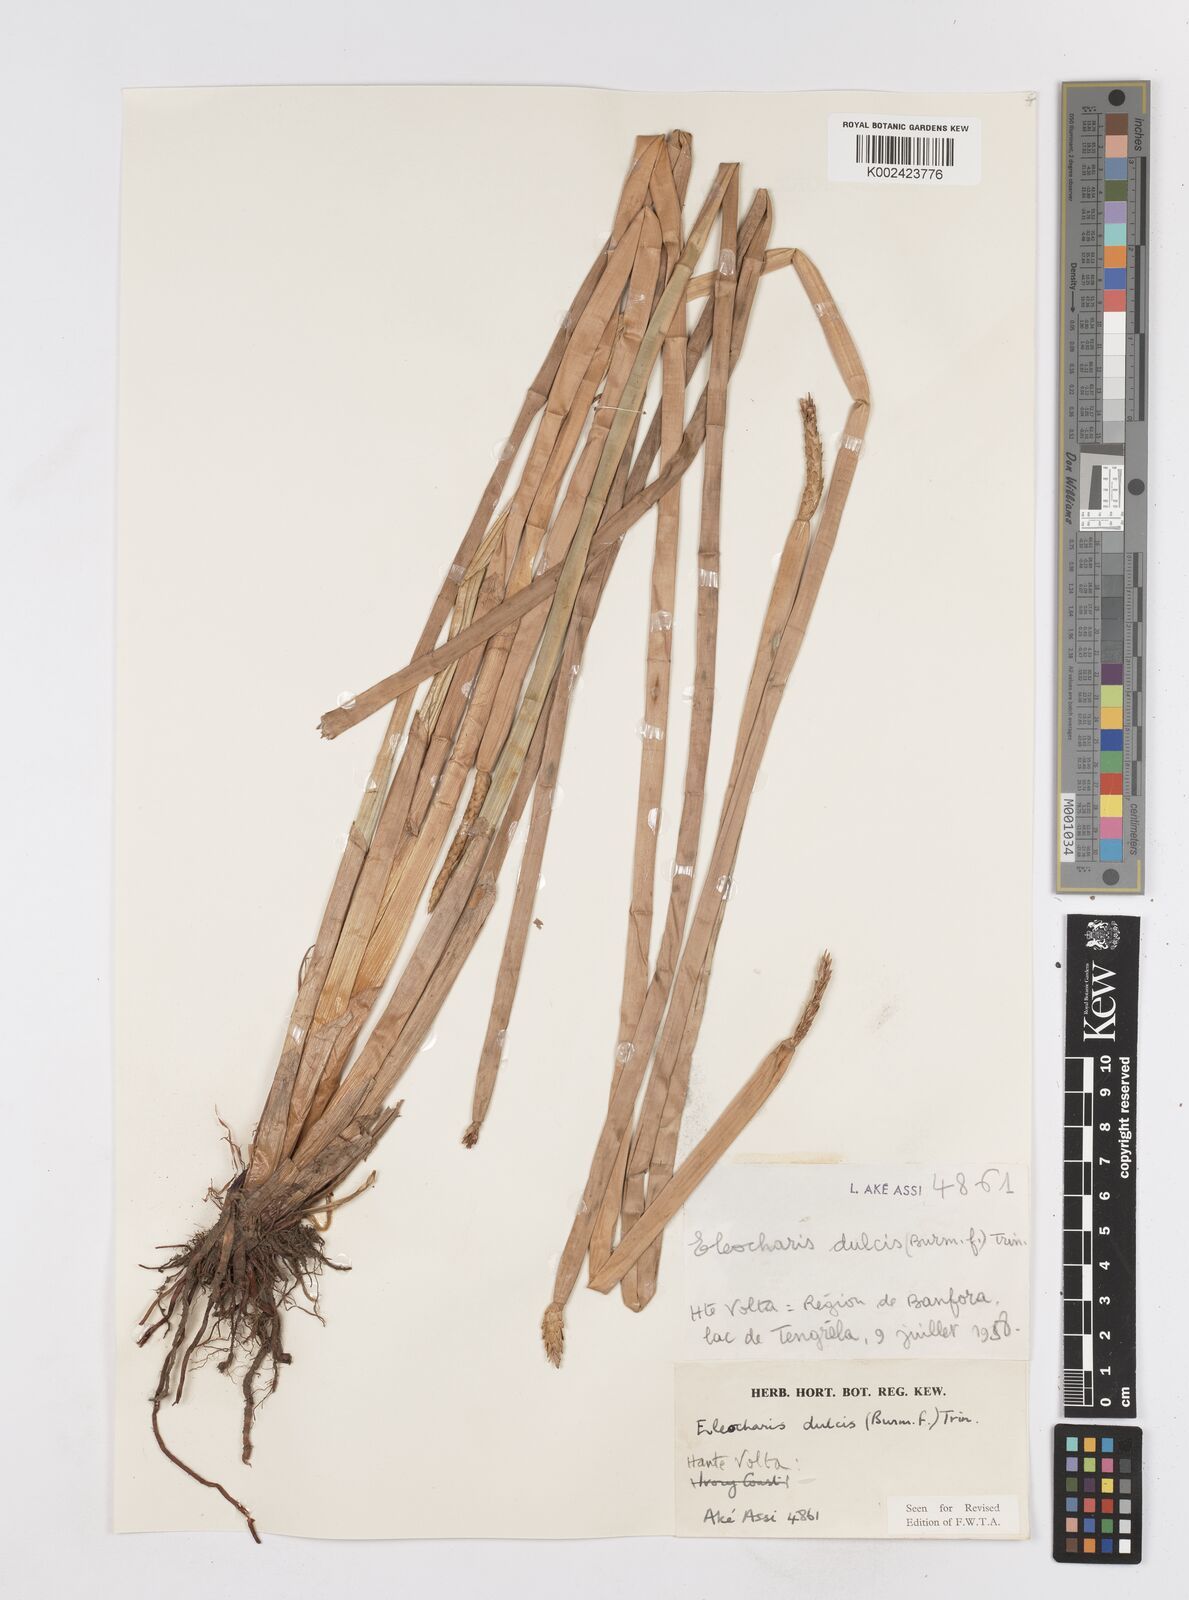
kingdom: Plantae
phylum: Tracheophyta
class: Liliopsida
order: Poales
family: Cyperaceae
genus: Eleocharis
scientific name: Eleocharis dulcis
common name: Chinese water chestnut
